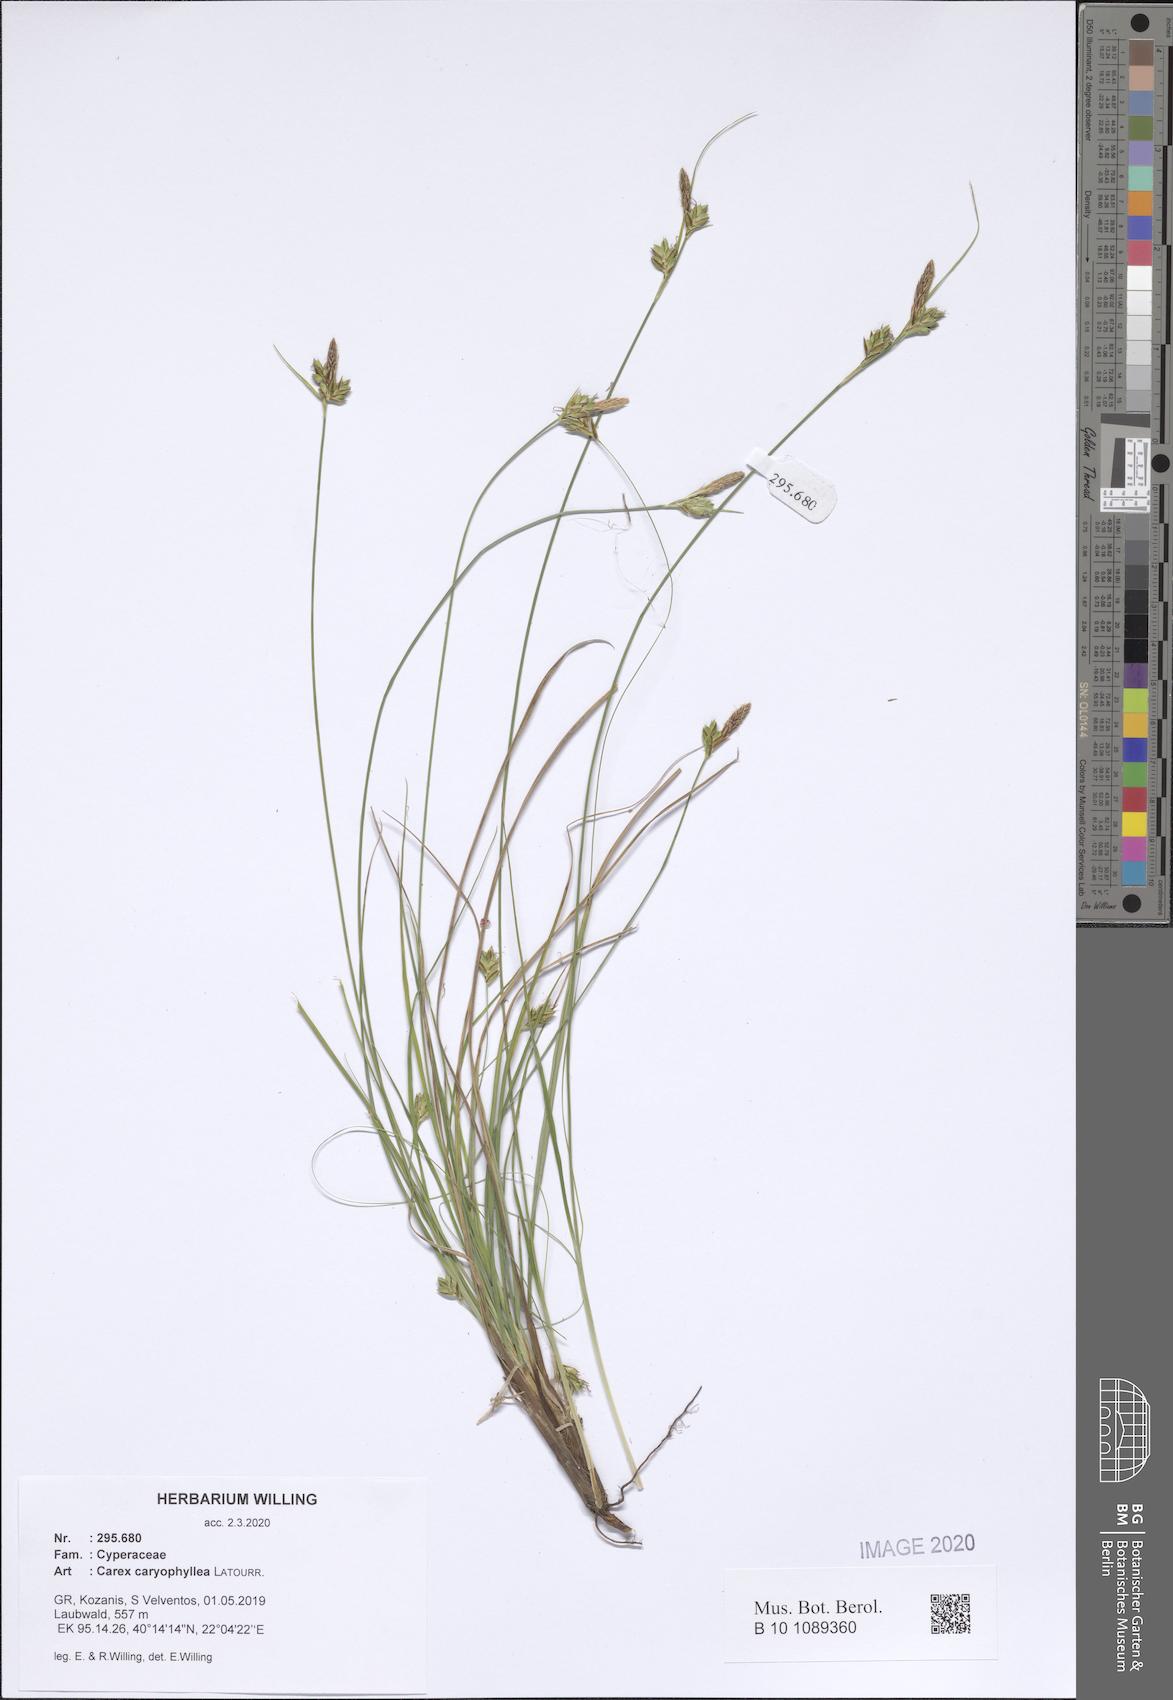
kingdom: Plantae
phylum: Tracheophyta
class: Liliopsida
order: Poales
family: Cyperaceae
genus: Carex
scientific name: Carex halleriana
